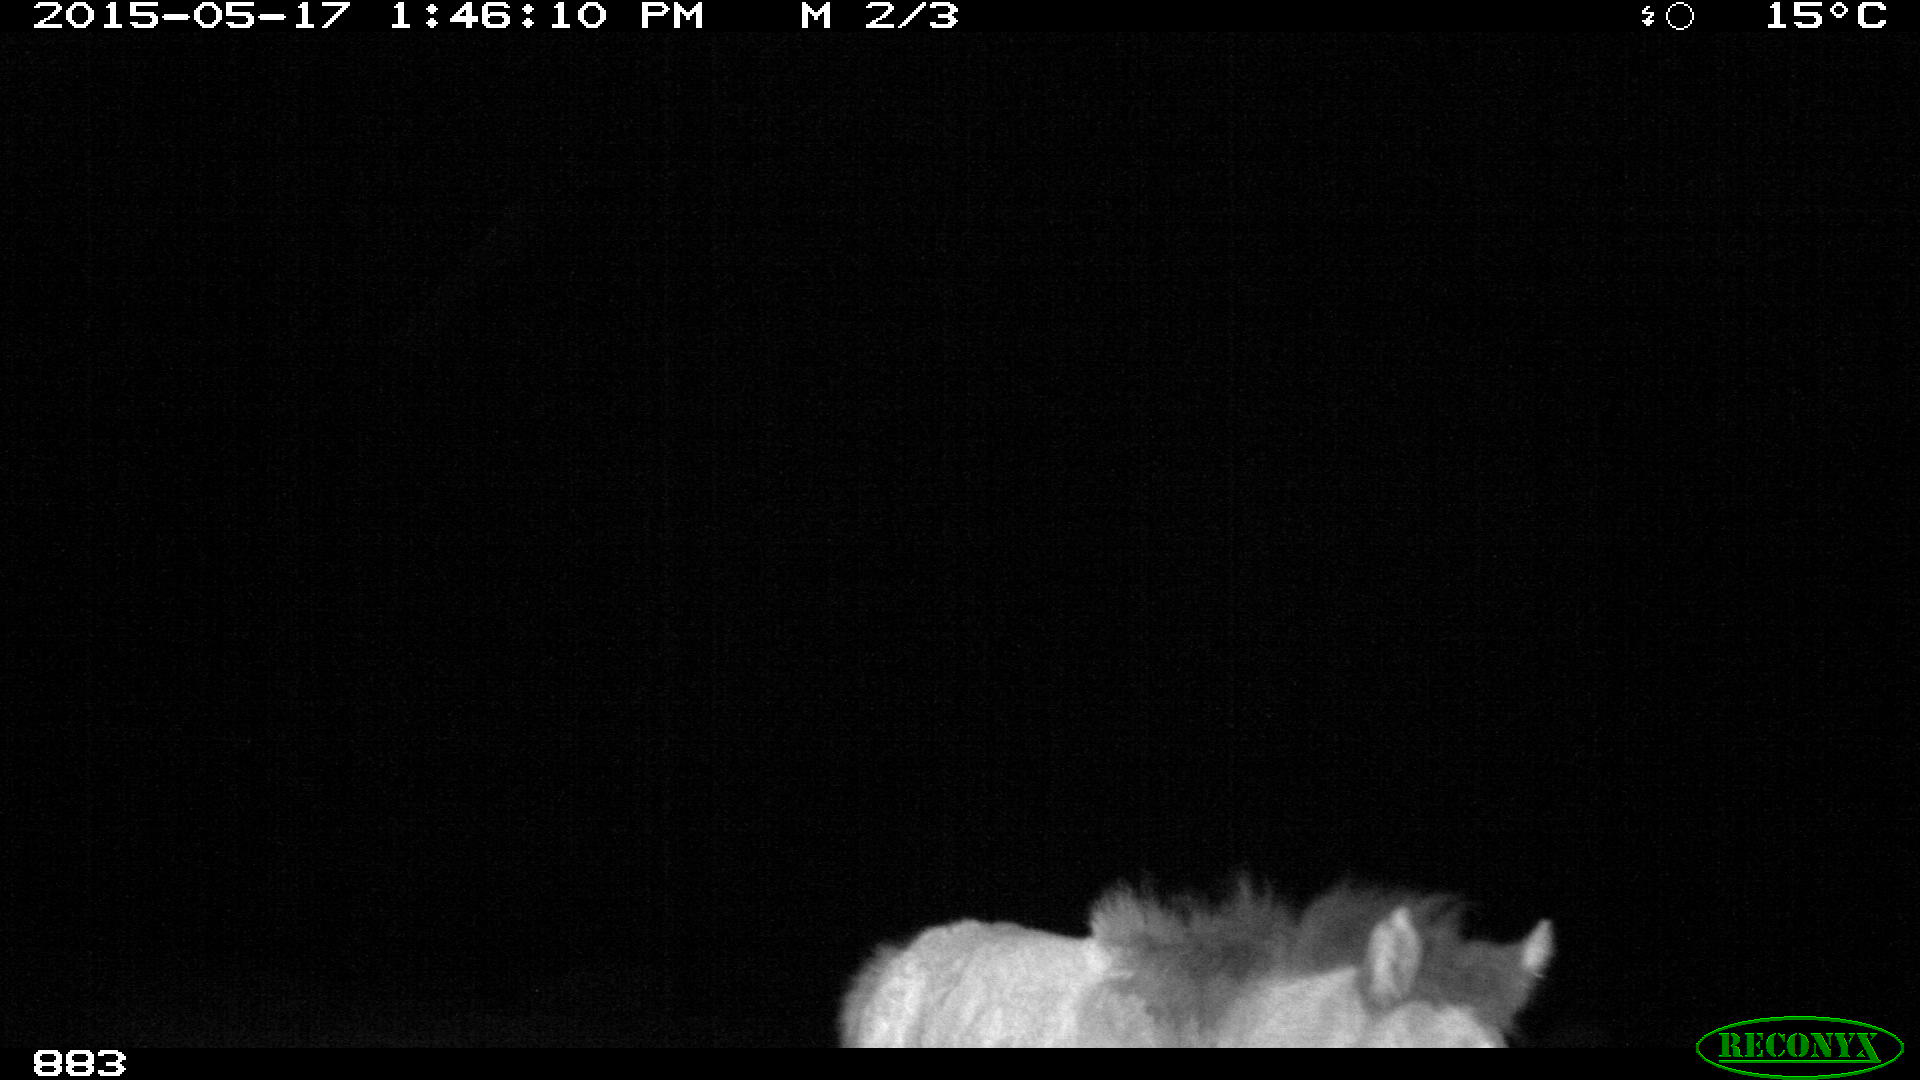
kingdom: Animalia
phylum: Chordata
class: Mammalia
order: Perissodactyla
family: Equidae
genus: Equus
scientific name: Equus caballus
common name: Horse
